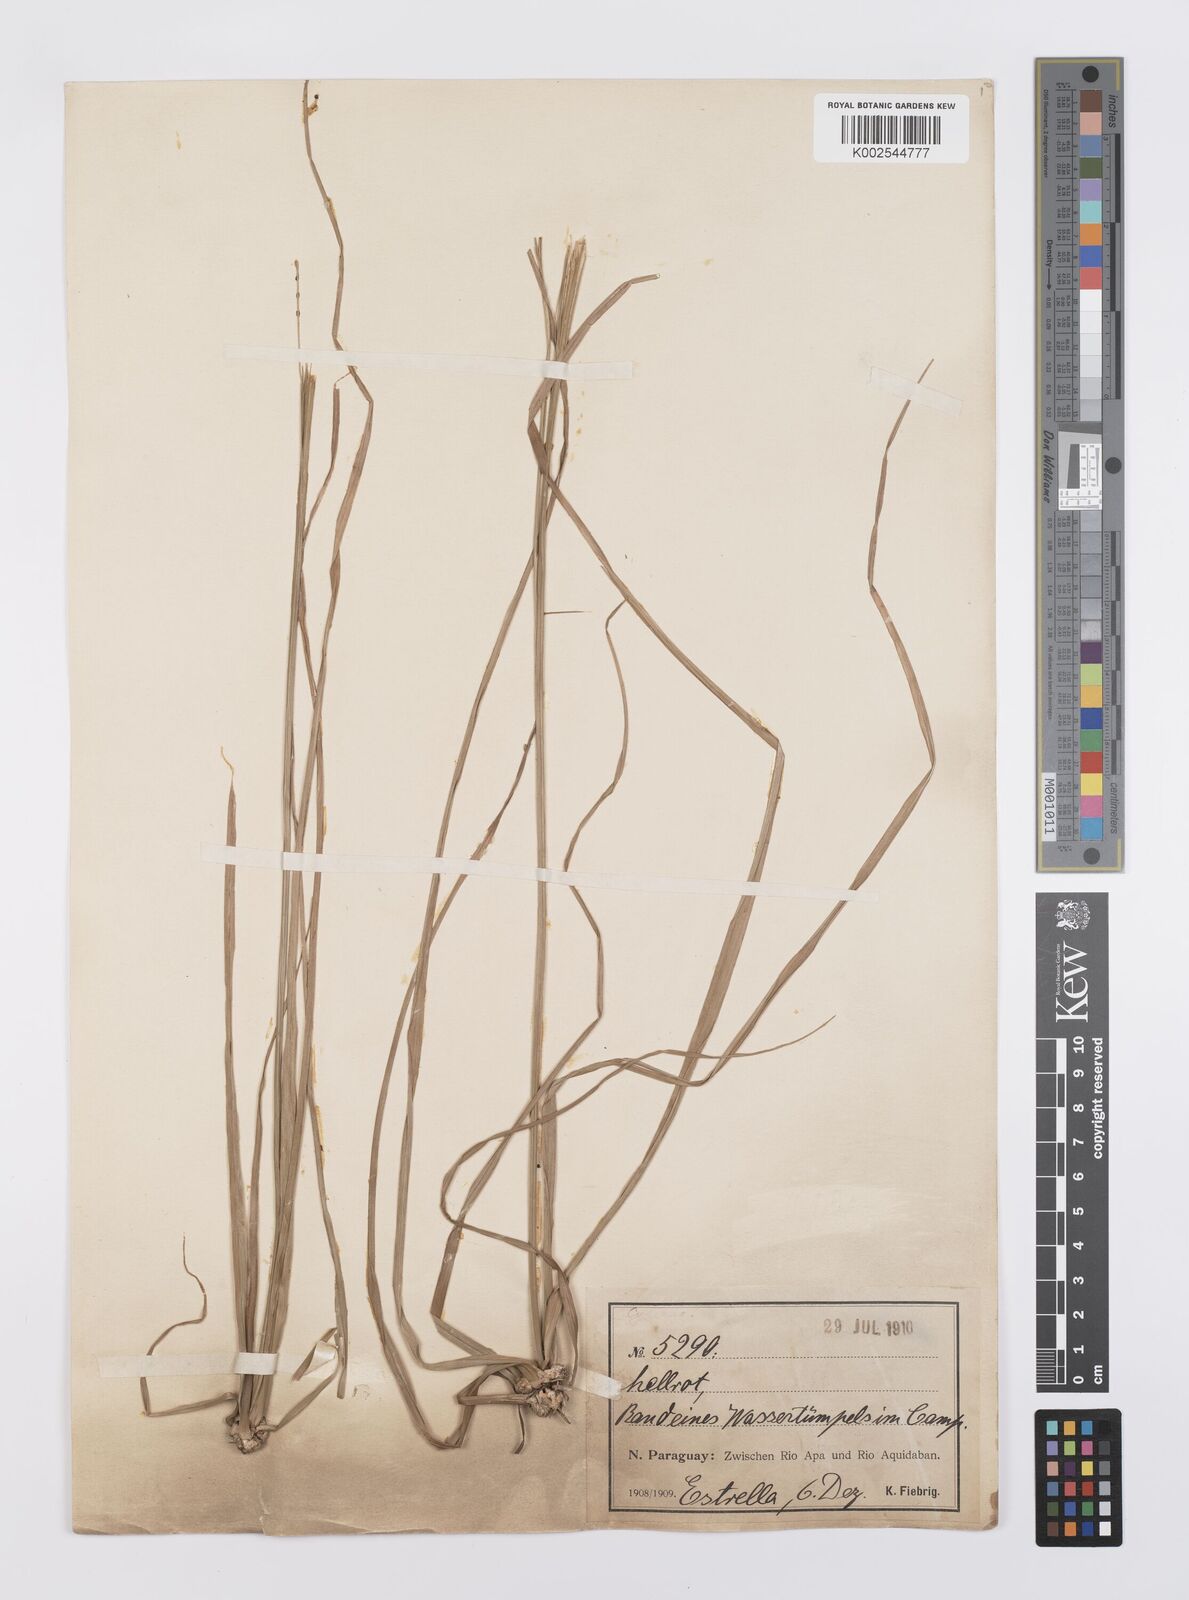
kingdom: Plantae
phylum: Tracheophyta
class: Liliopsida
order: Poales
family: Cyperaceae
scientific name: Cyperaceae
